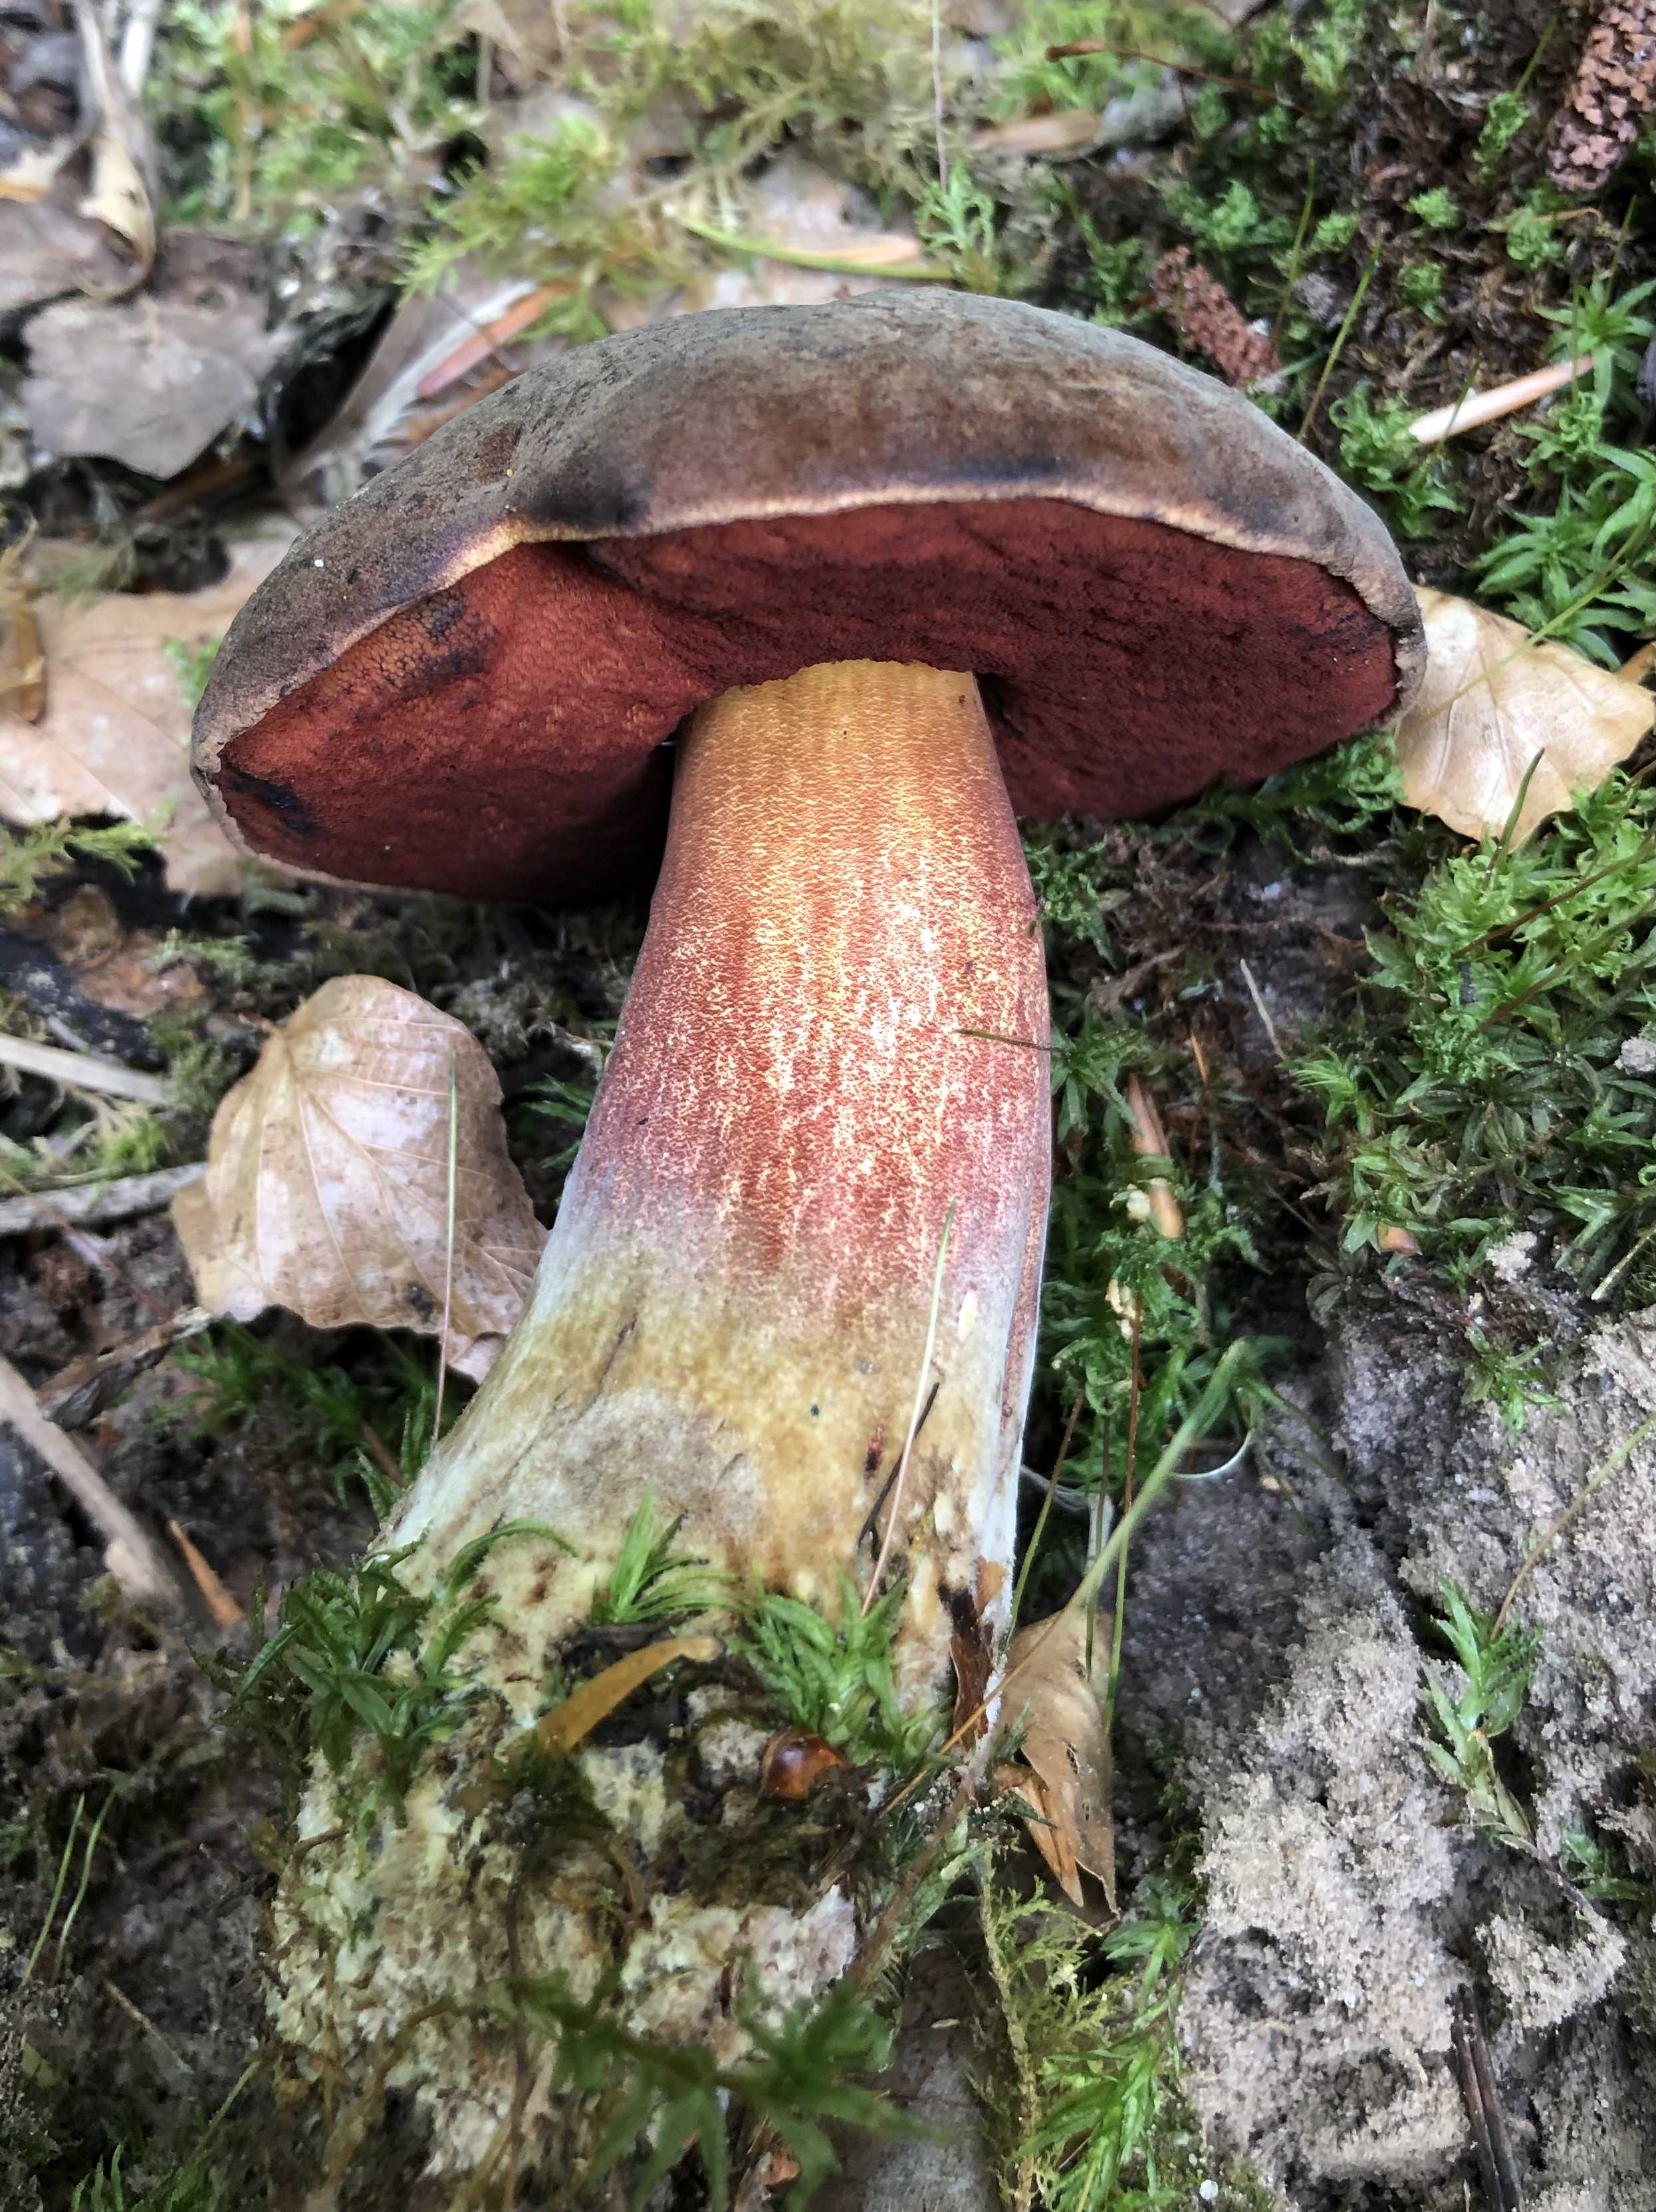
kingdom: Fungi
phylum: Basidiomycota
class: Agaricomycetes
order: Boletales
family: Boletaceae
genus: Neoboletus
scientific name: Neoboletus erythropus
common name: punktstokket indigorørhat
